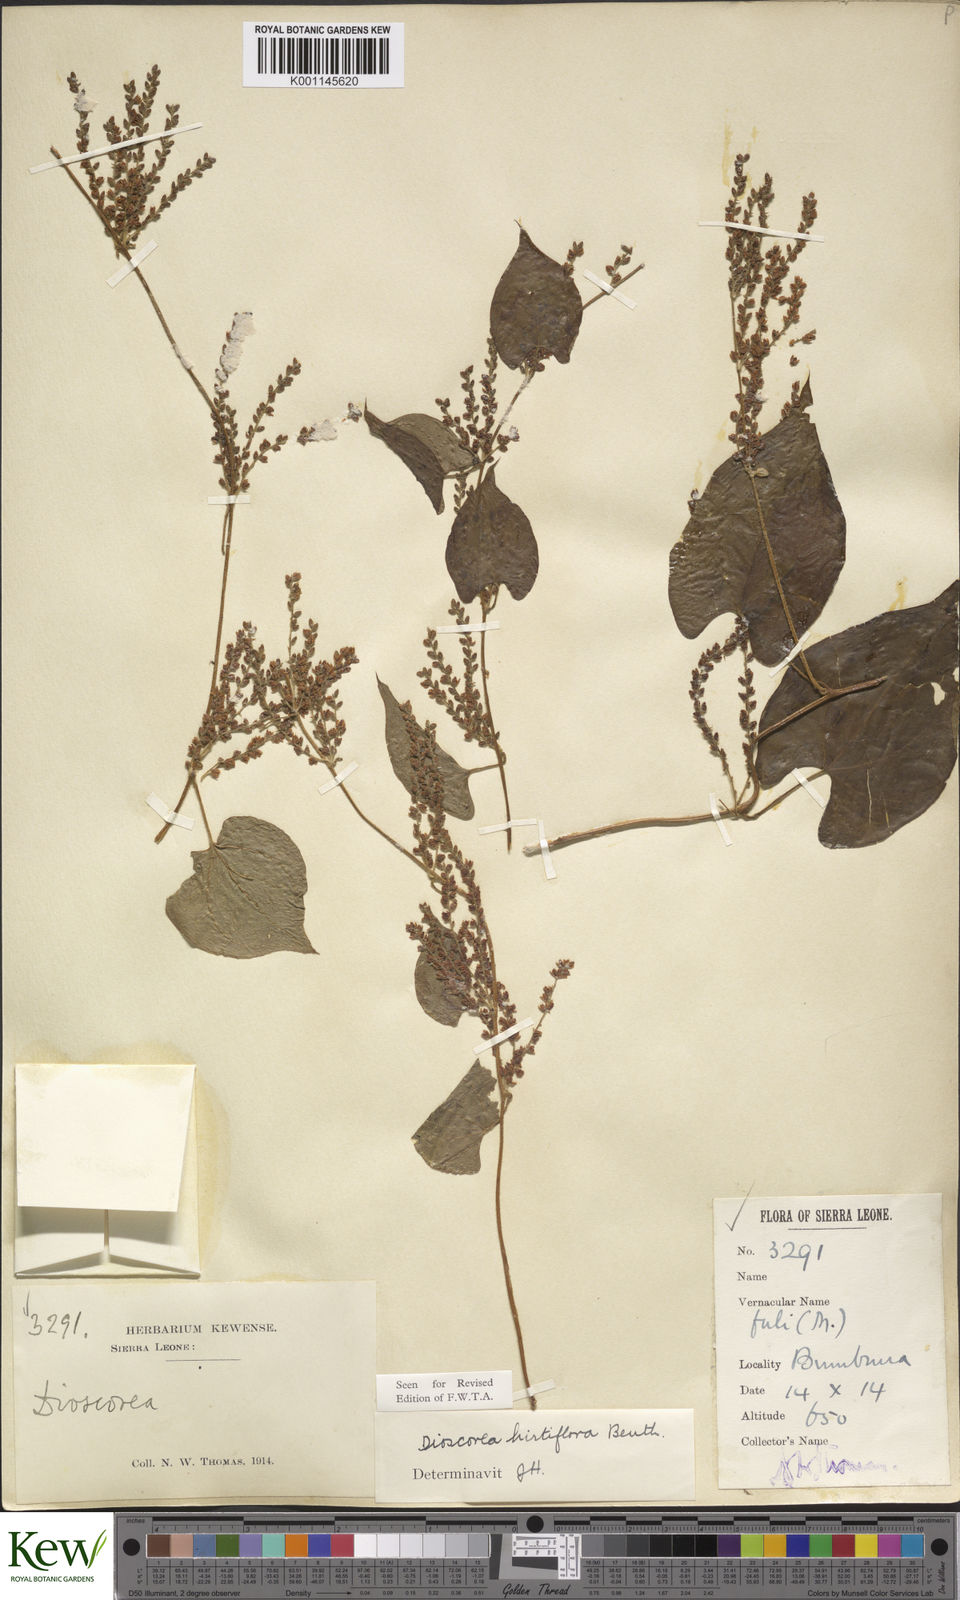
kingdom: Plantae
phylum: Tracheophyta
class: Liliopsida
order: Dioscoreales
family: Dioscoreaceae
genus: Dioscorea
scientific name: Dioscorea hirtiflora
